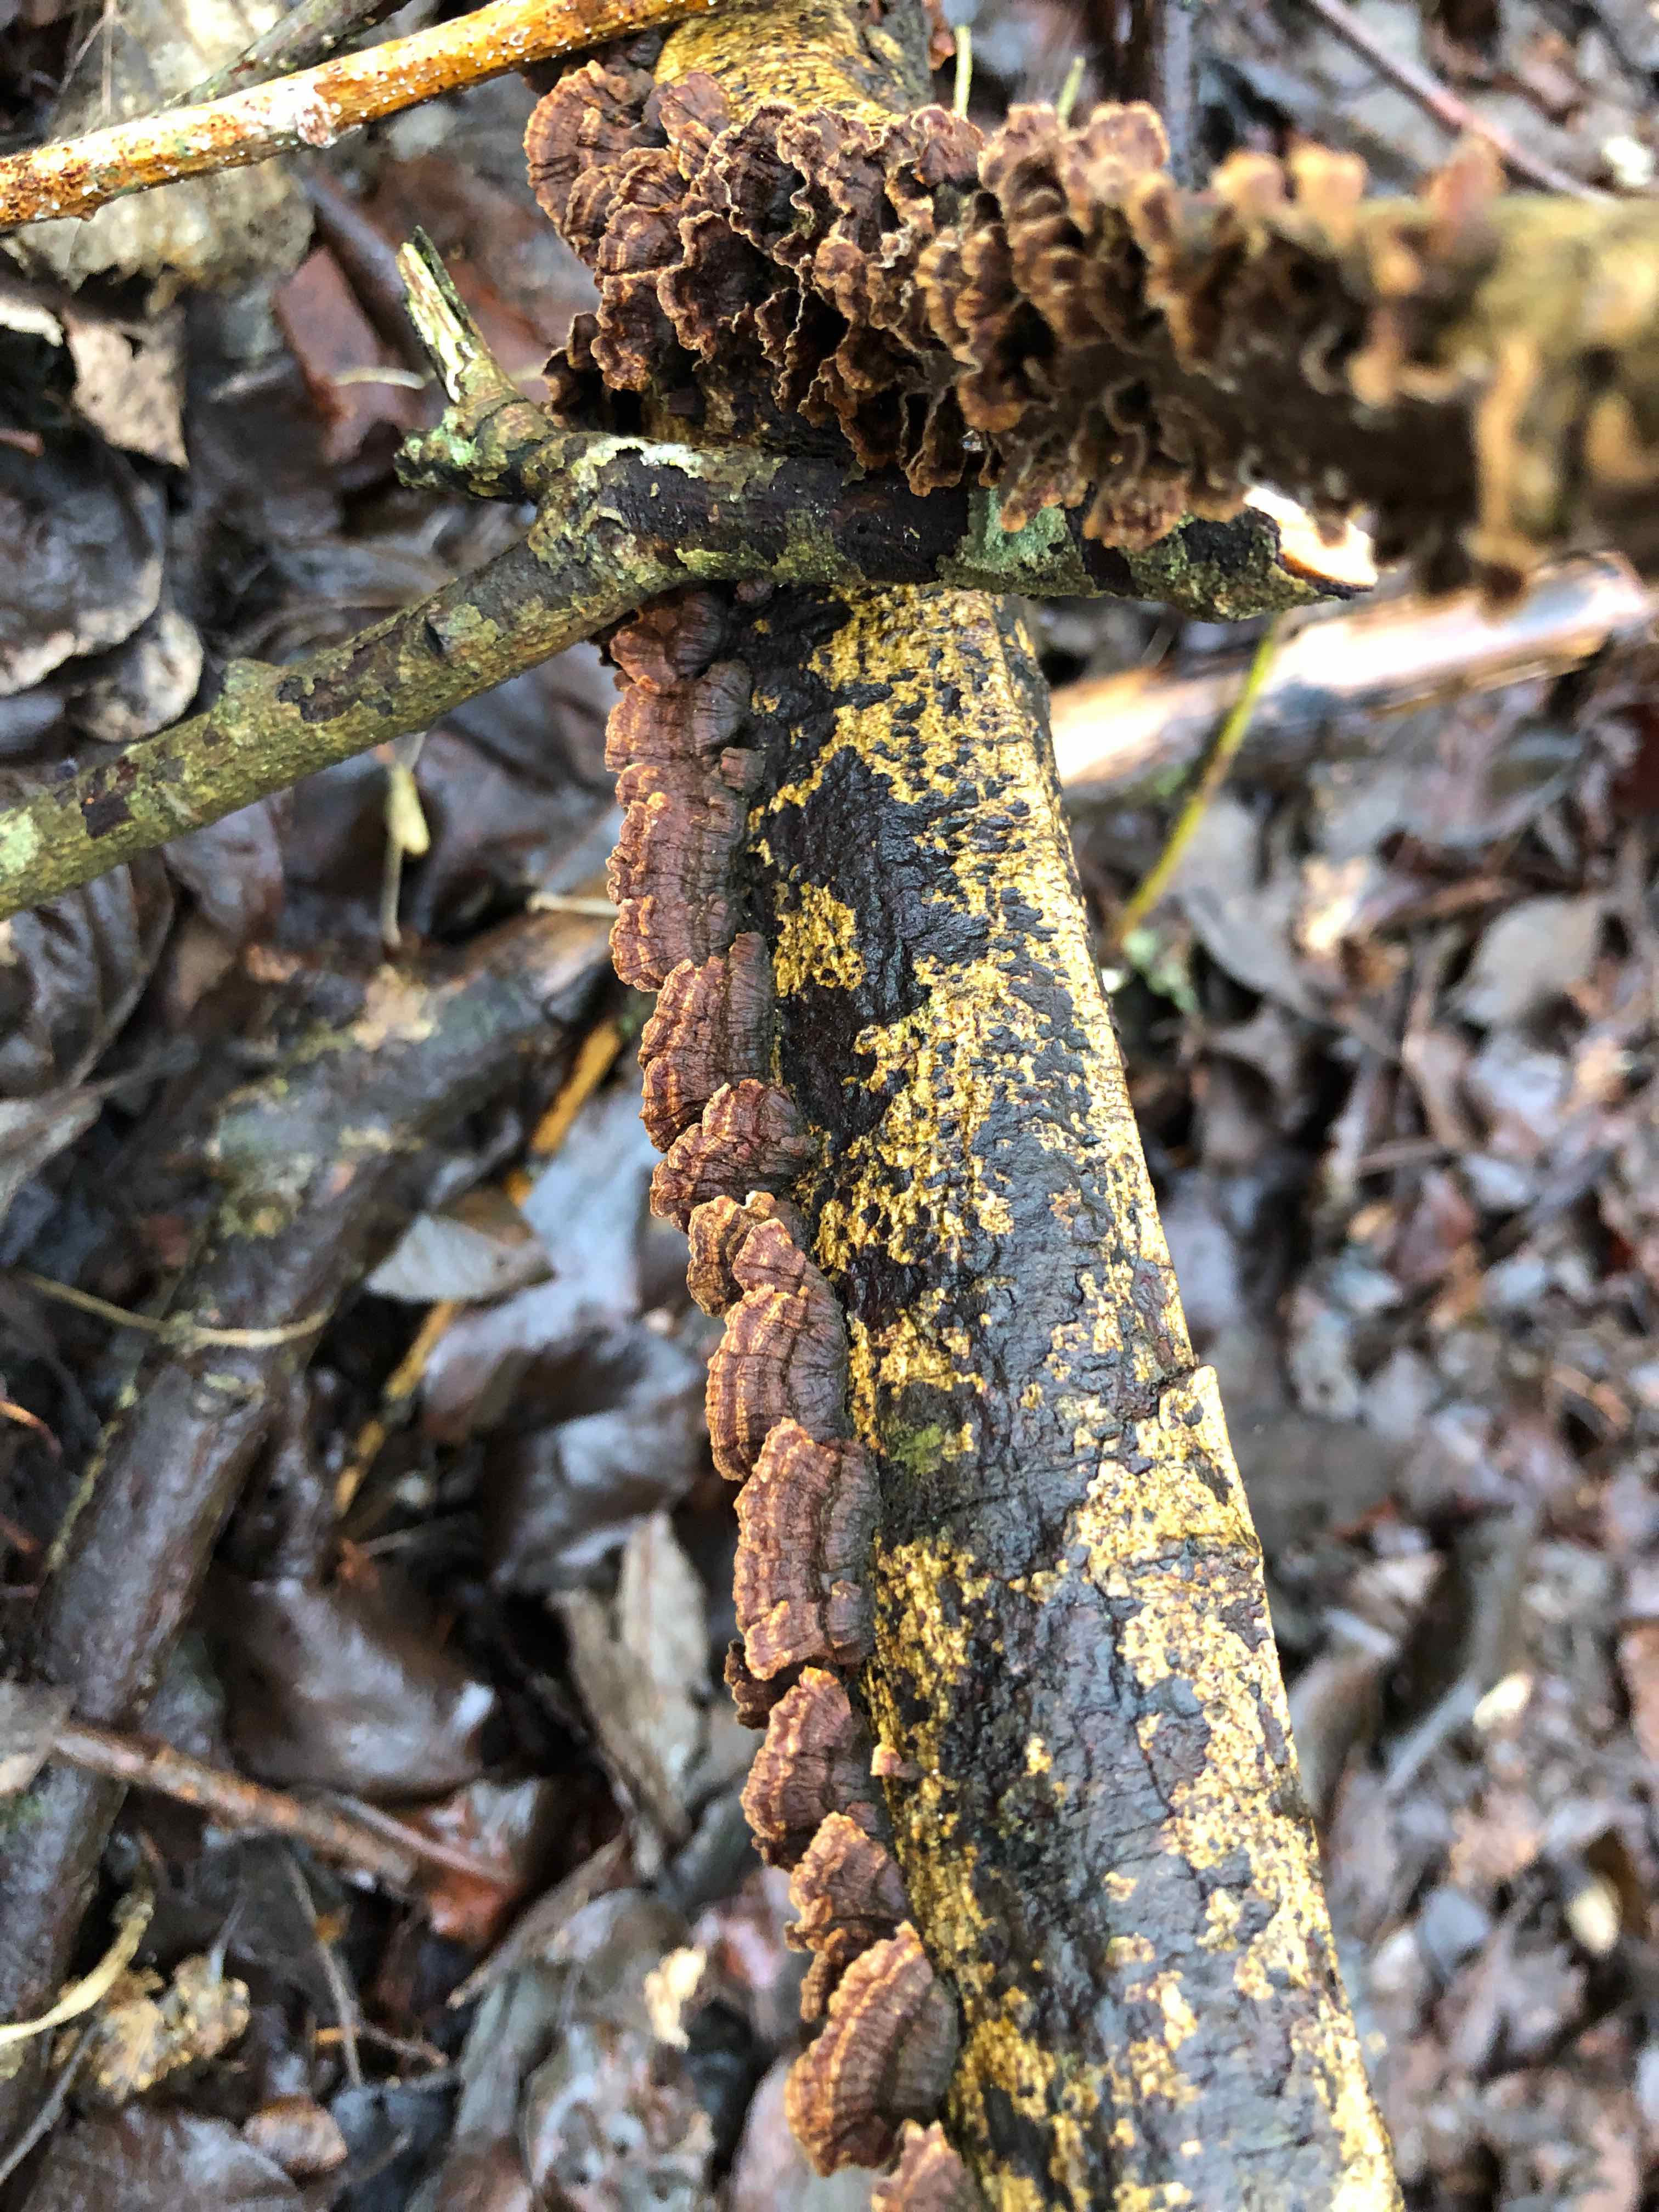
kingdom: Fungi
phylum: Basidiomycota
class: Agaricomycetes
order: Hymenochaetales
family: Hymenochaetaceae
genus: Hydnoporia
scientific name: Hydnoporia tabacina
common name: tobaksbrun ruslædersvamp
